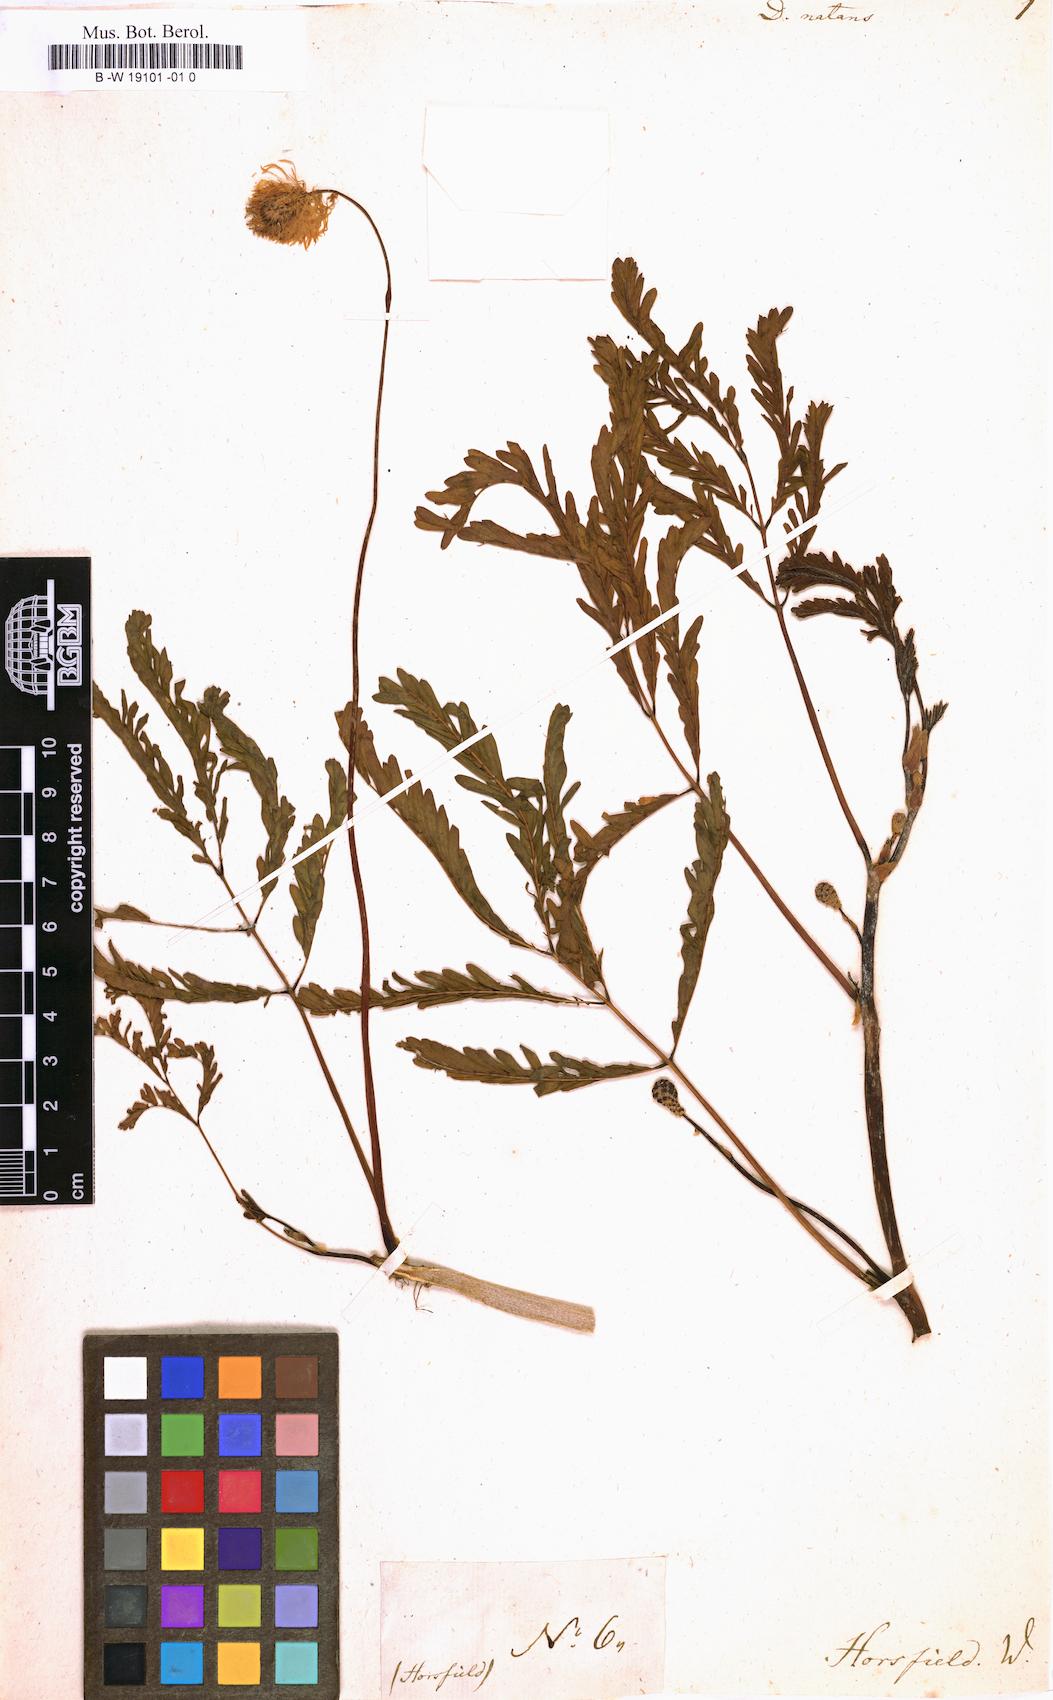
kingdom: Plantae
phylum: Tracheophyta
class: Magnoliopsida
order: Fabales
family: Fabaceae
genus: Neptunia
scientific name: Neptunia prostrata
